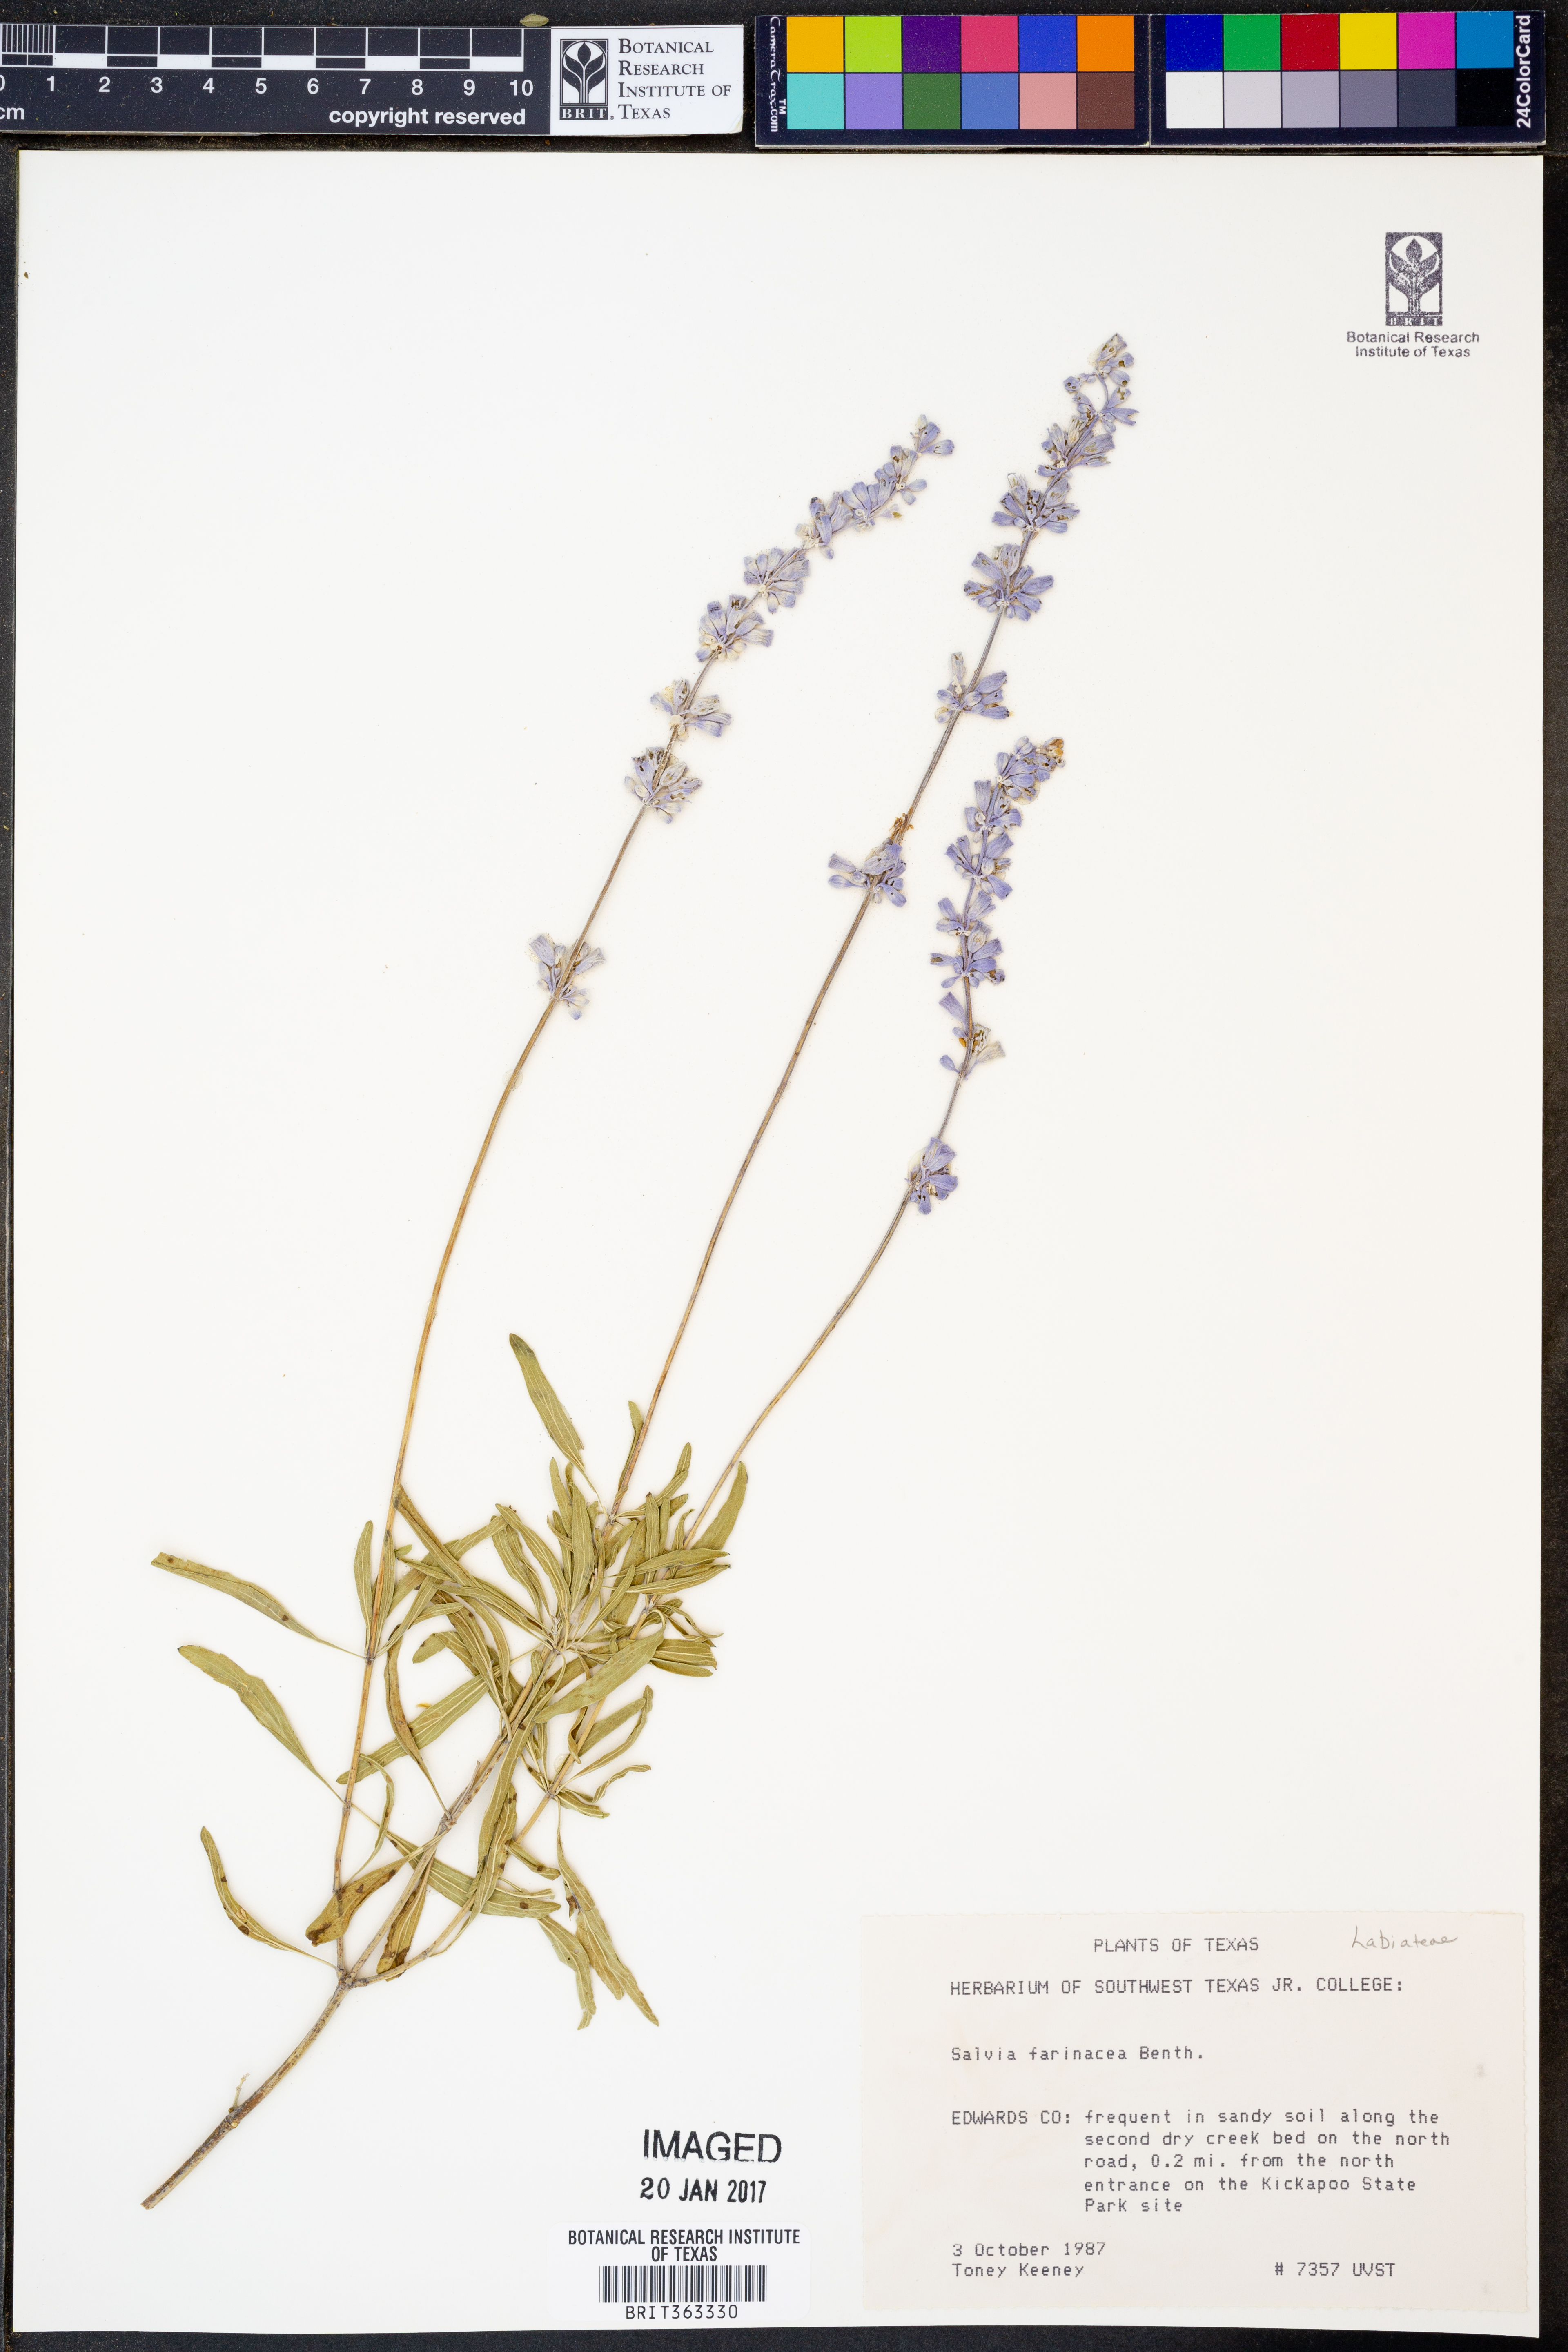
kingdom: Plantae
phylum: Tracheophyta
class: Magnoliopsida
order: Lamiales
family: Lamiaceae
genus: Salvia
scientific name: Salvia farinacea
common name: Mealy sage
